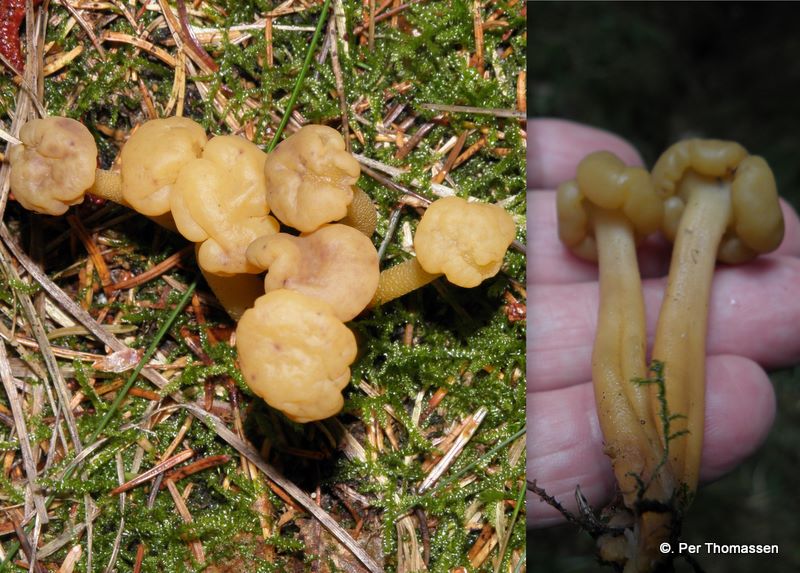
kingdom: Fungi
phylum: Ascomycota
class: Leotiomycetes
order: Leotiales
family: Leotiaceae
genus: Leotia
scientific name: Leotia lubrica
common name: ravsvamp
